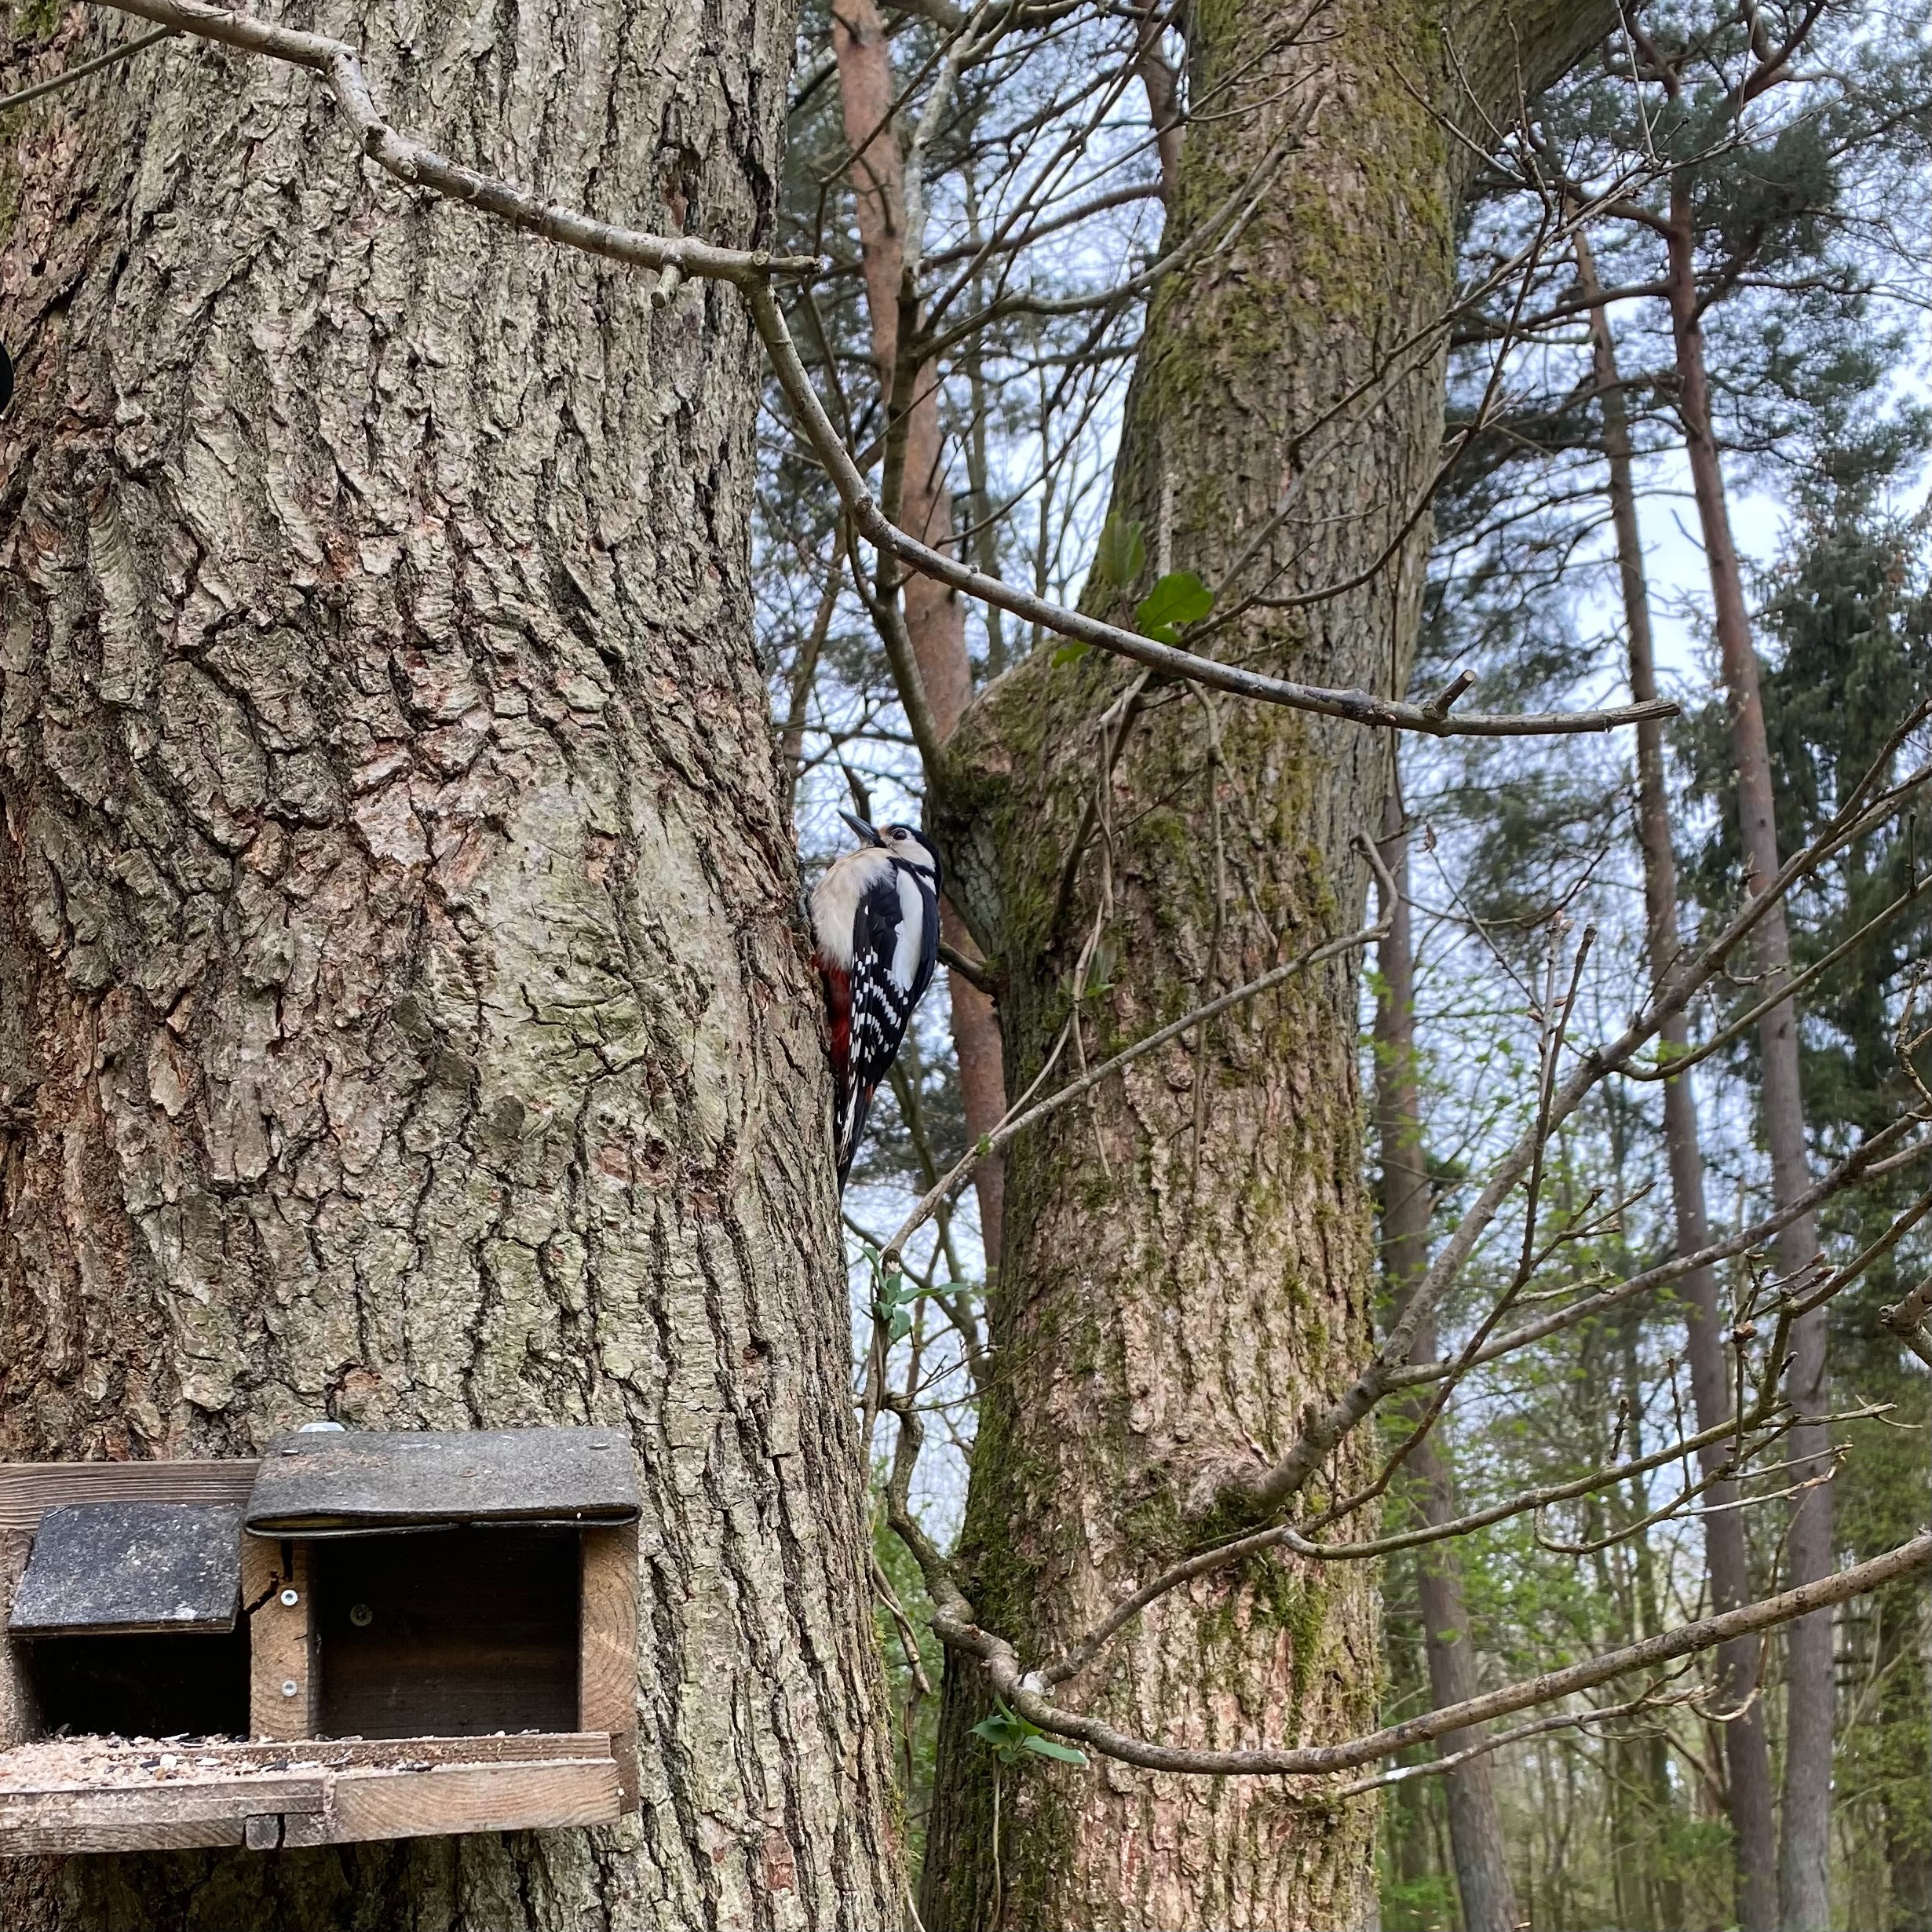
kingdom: Animalia
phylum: Chordata
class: Aves
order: Piciformes
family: Picidae
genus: Dendrocopos
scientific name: Dendrocopos major
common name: Stor flagspætte
